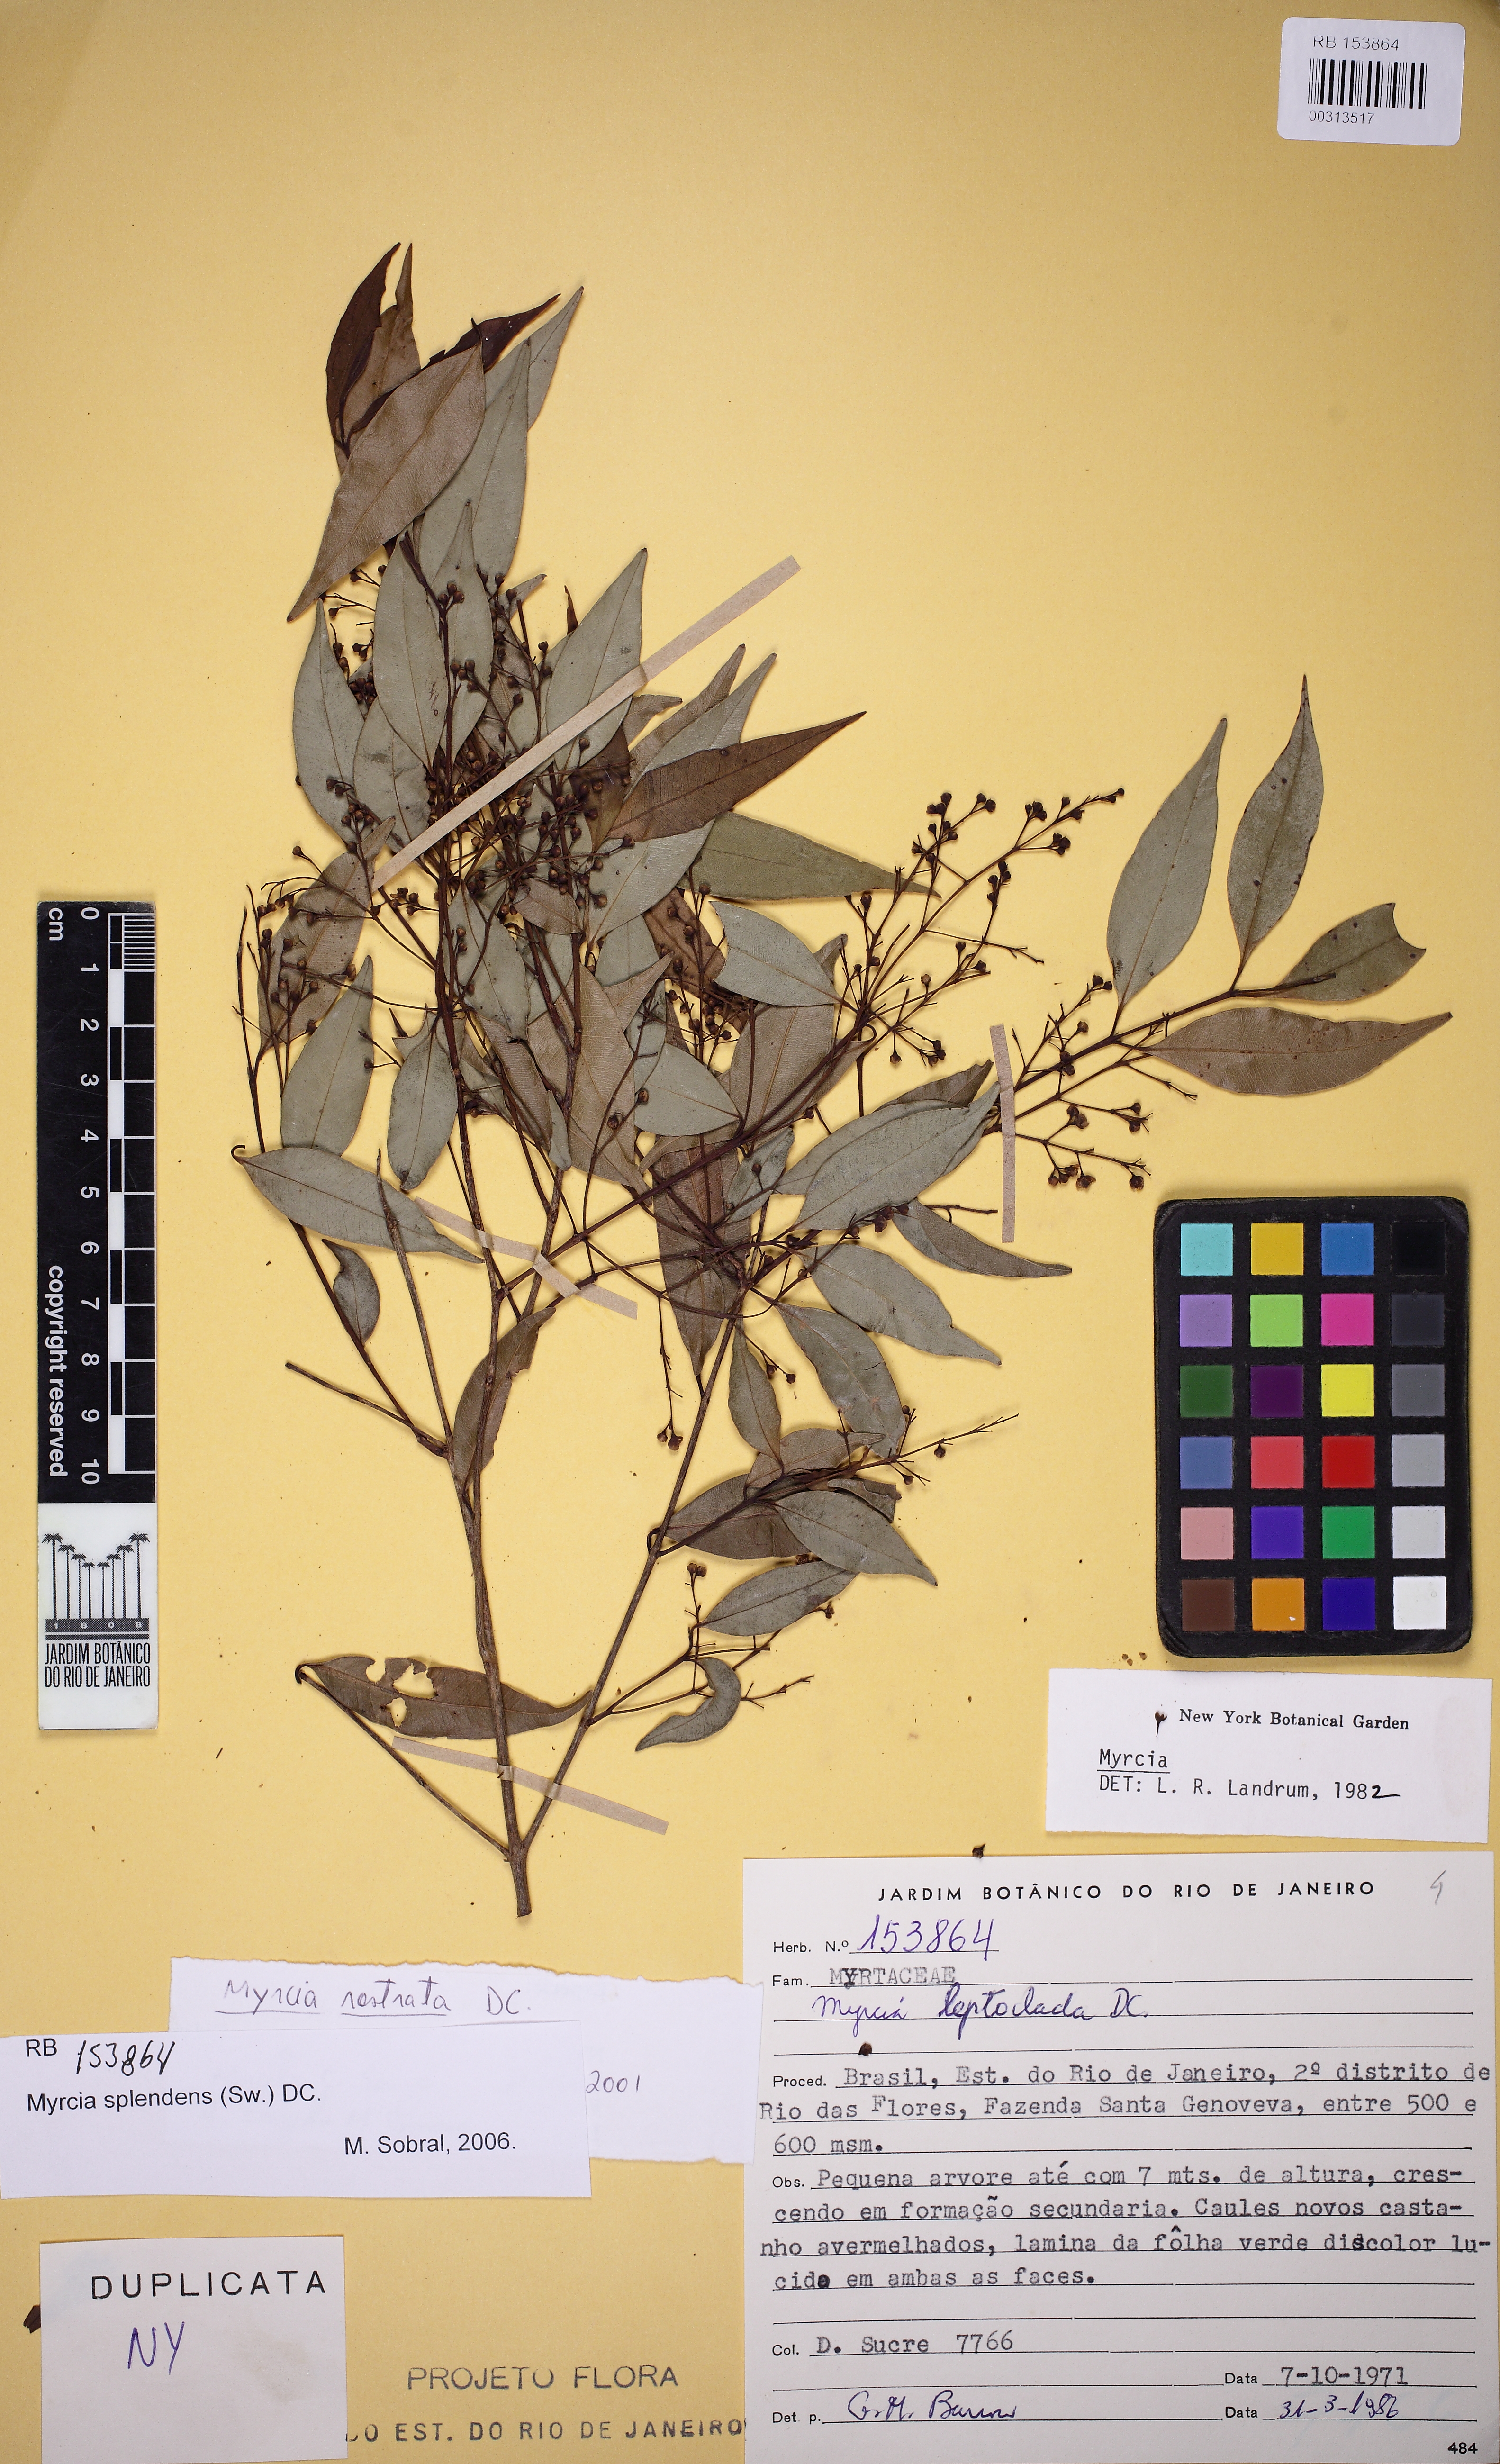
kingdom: Plantae
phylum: Tracheophyta
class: Magnoliopsida
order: Myrtales
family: Myrtaceae
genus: Myrcia
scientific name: Myrcia splendens
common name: Surinam cherry
